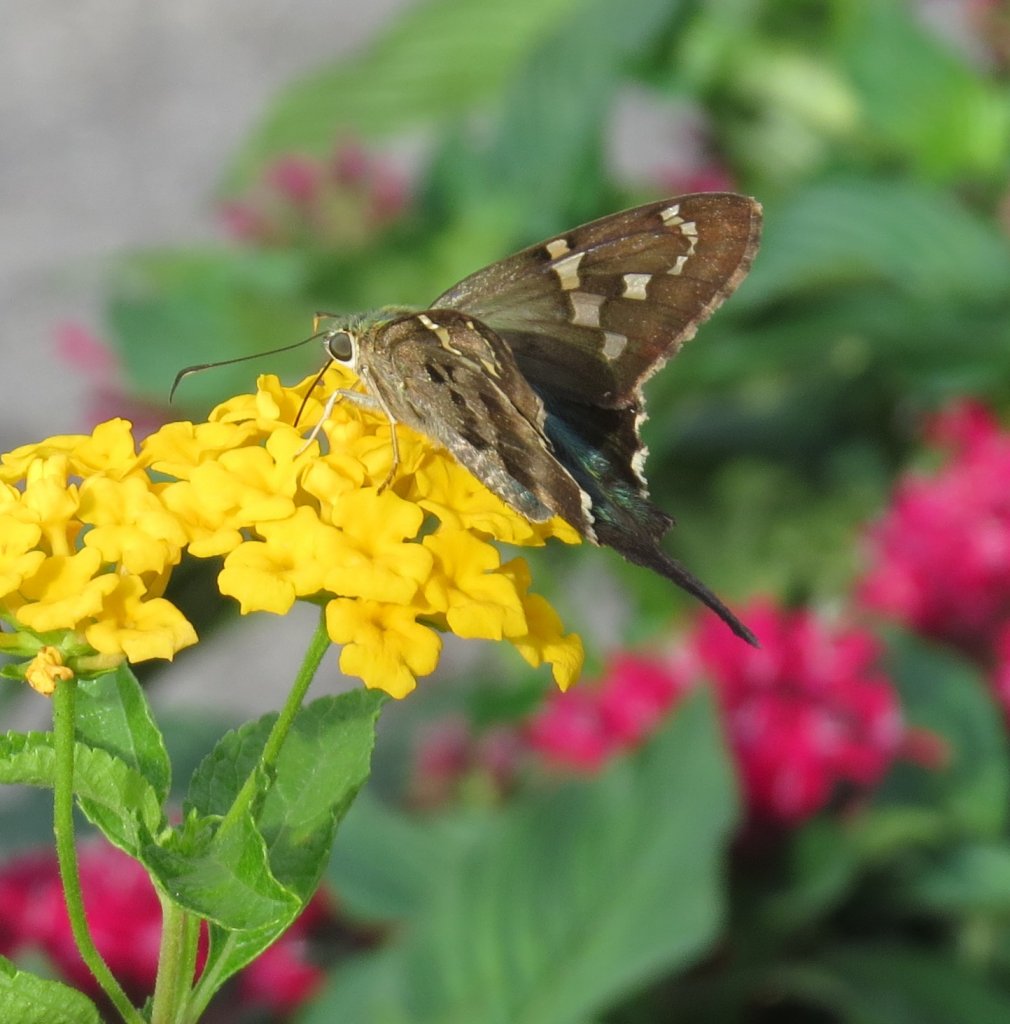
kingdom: Animalia
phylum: Arthropoda
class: Insecta
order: Lepidoptera
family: Hesperiidae
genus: Urbanus
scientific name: Urbanus proteus
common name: Long-tailed Skipper
